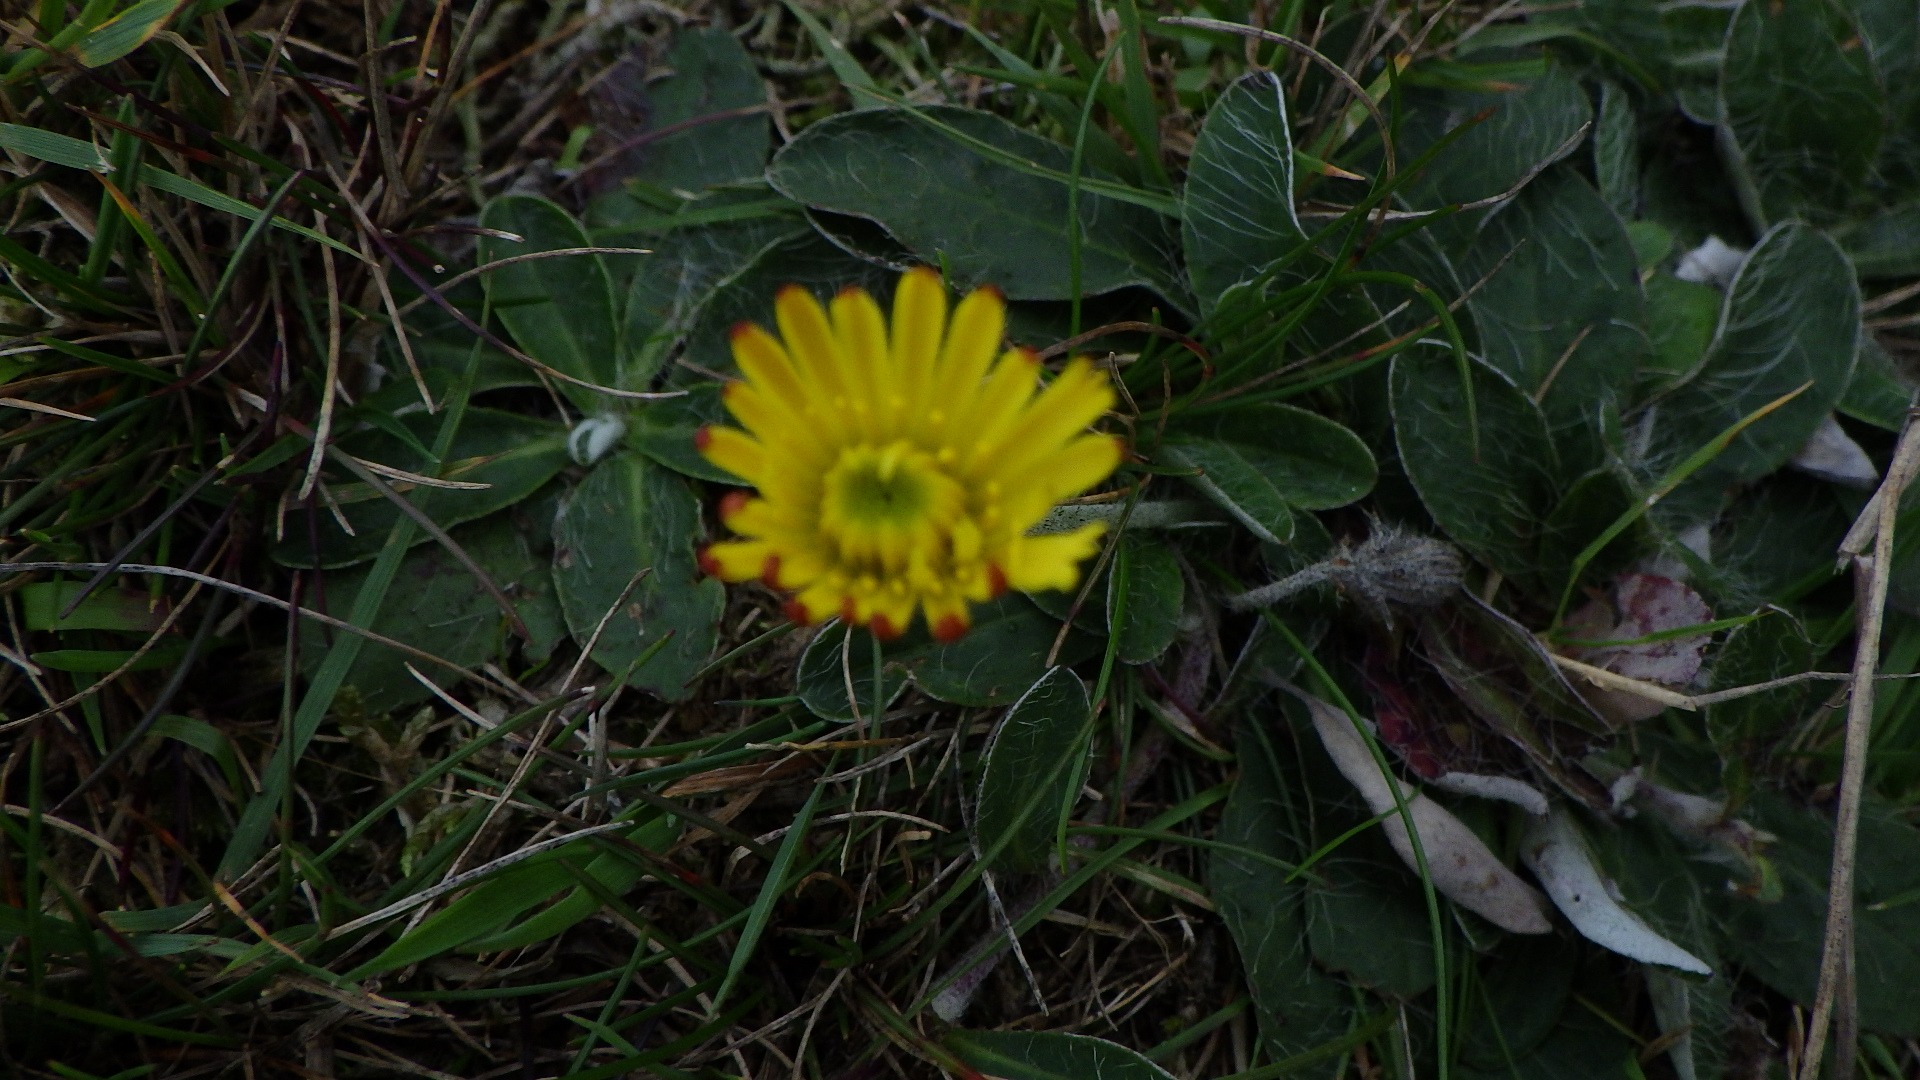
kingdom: Plantae
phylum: Tracheophyta
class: Magnoliopsida
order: Asterales
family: Asteraceae
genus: Pilosella
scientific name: Pilosella officinarum
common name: Håret høgeurt
